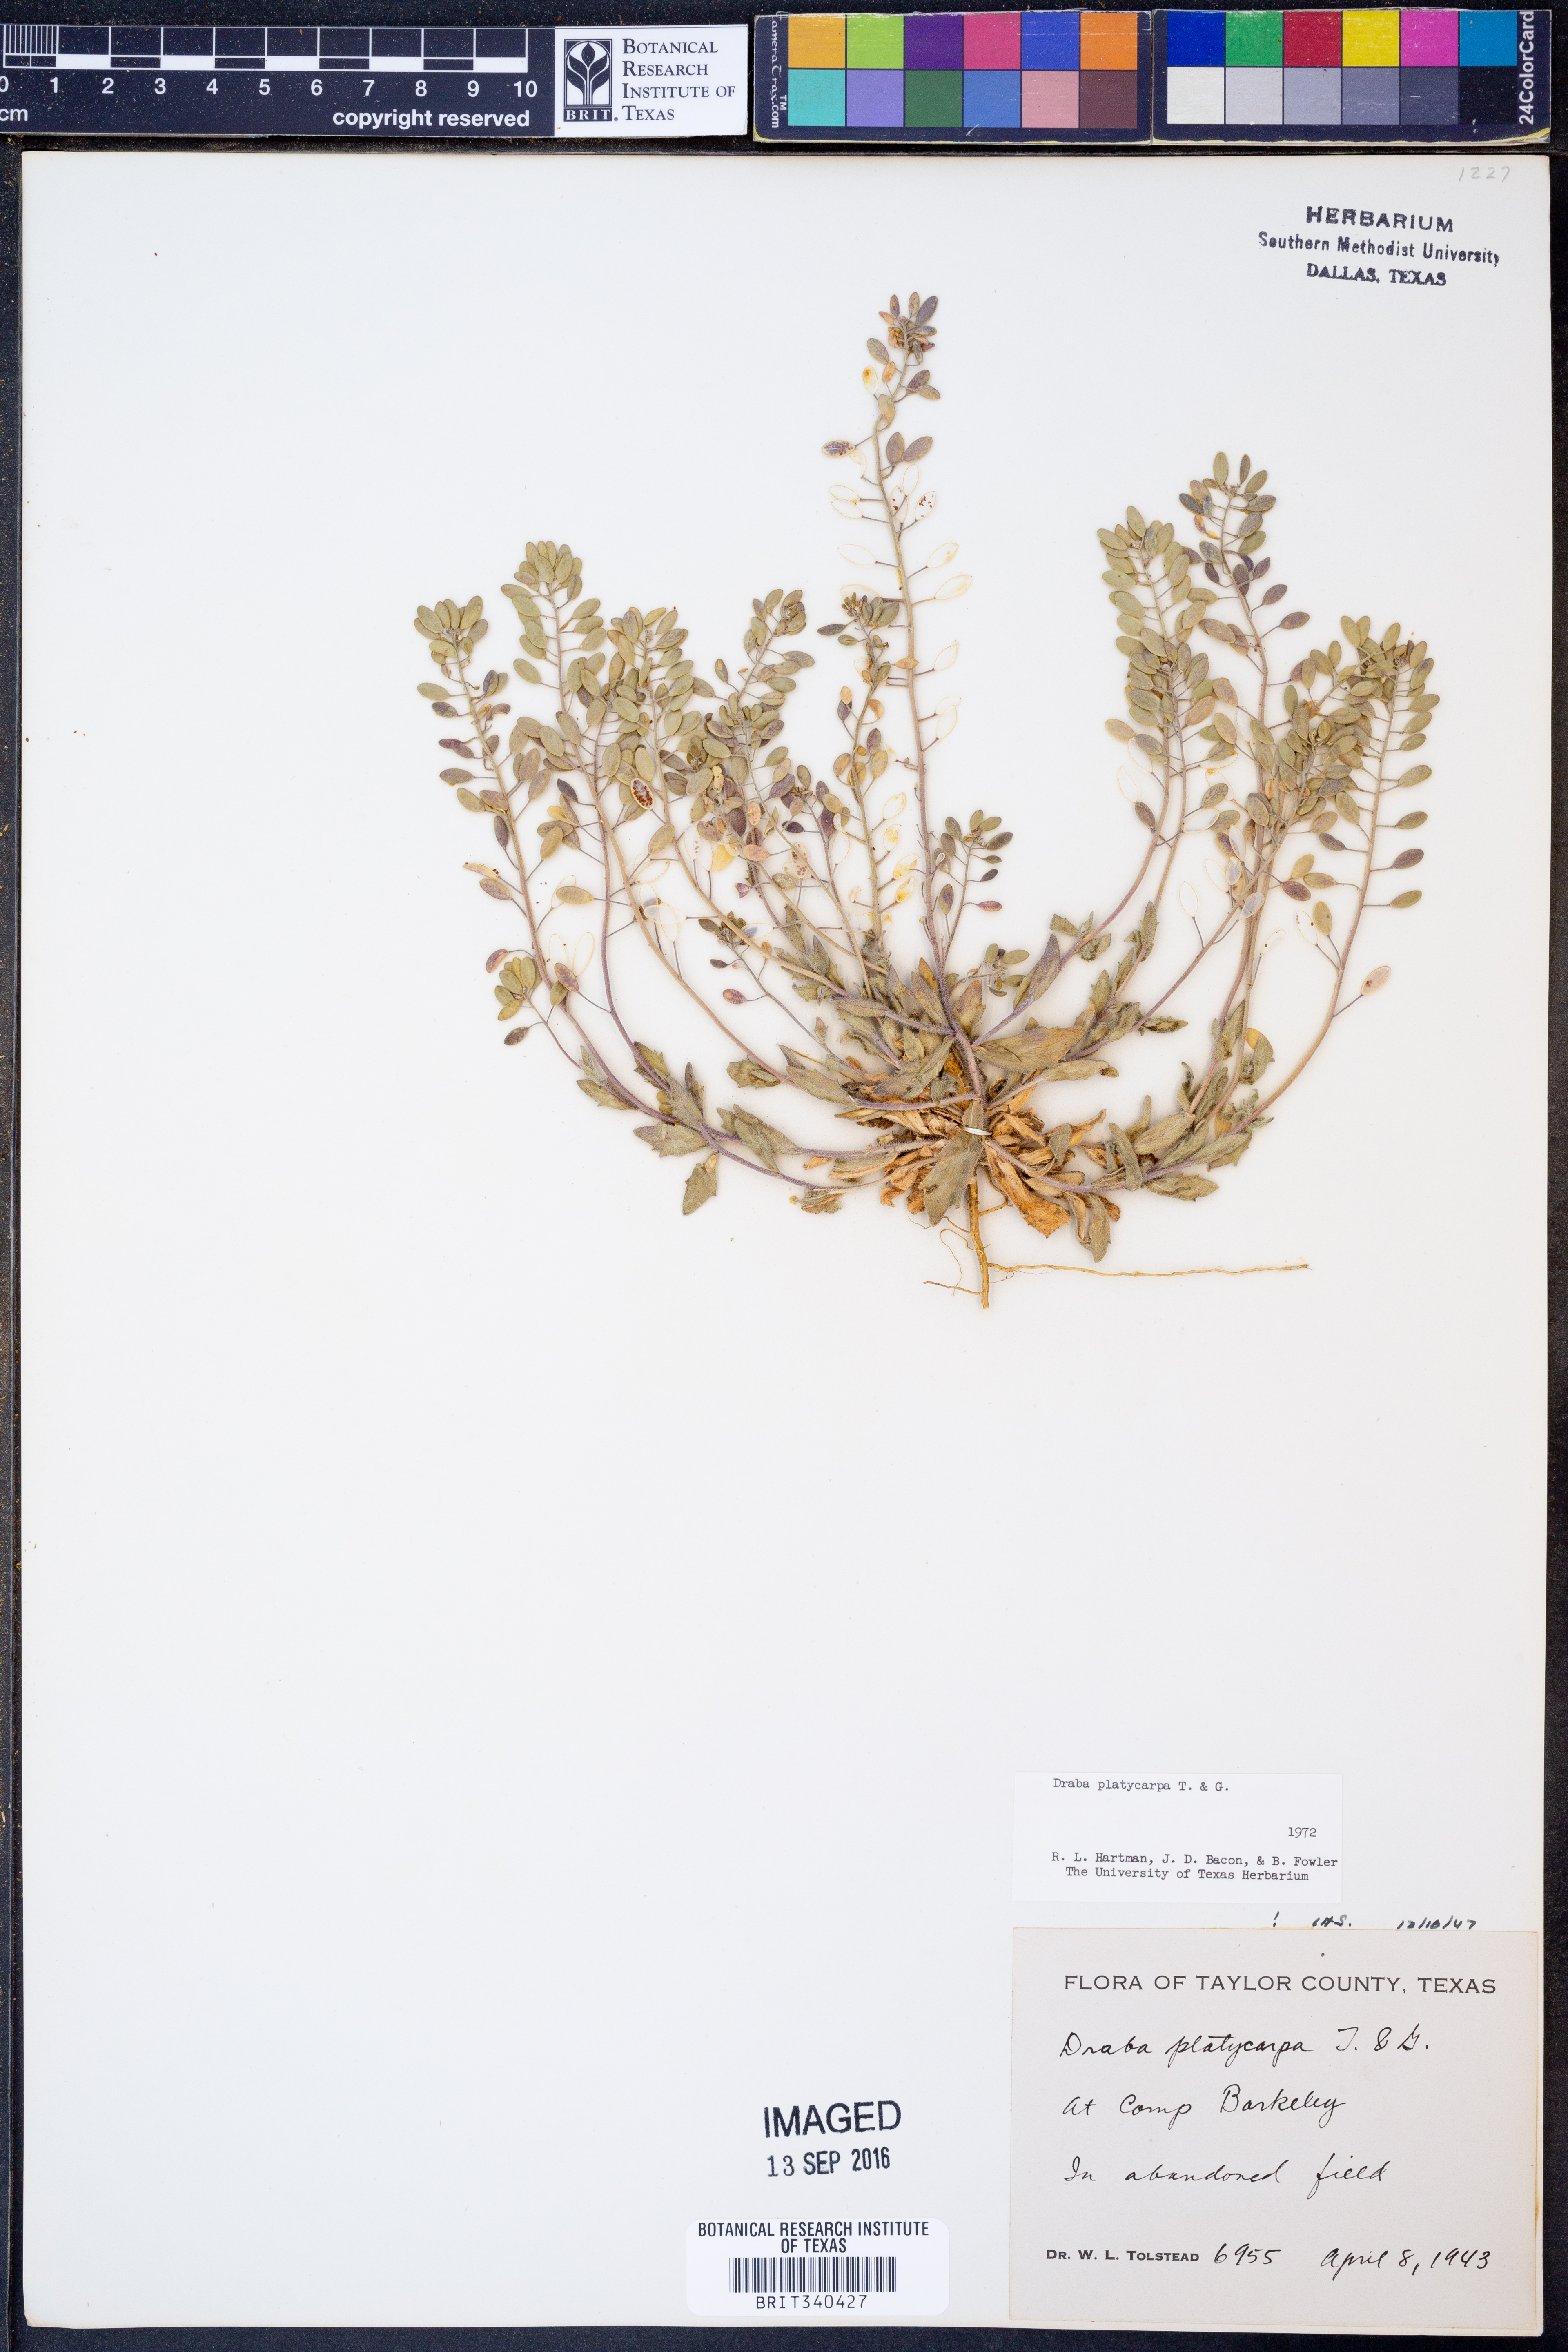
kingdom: Plantae
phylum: Tracheophyta
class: Magnoliopsida
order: Brassicales
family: Brassicaceae
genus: Tomostima
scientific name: Tomostima platycarpa
